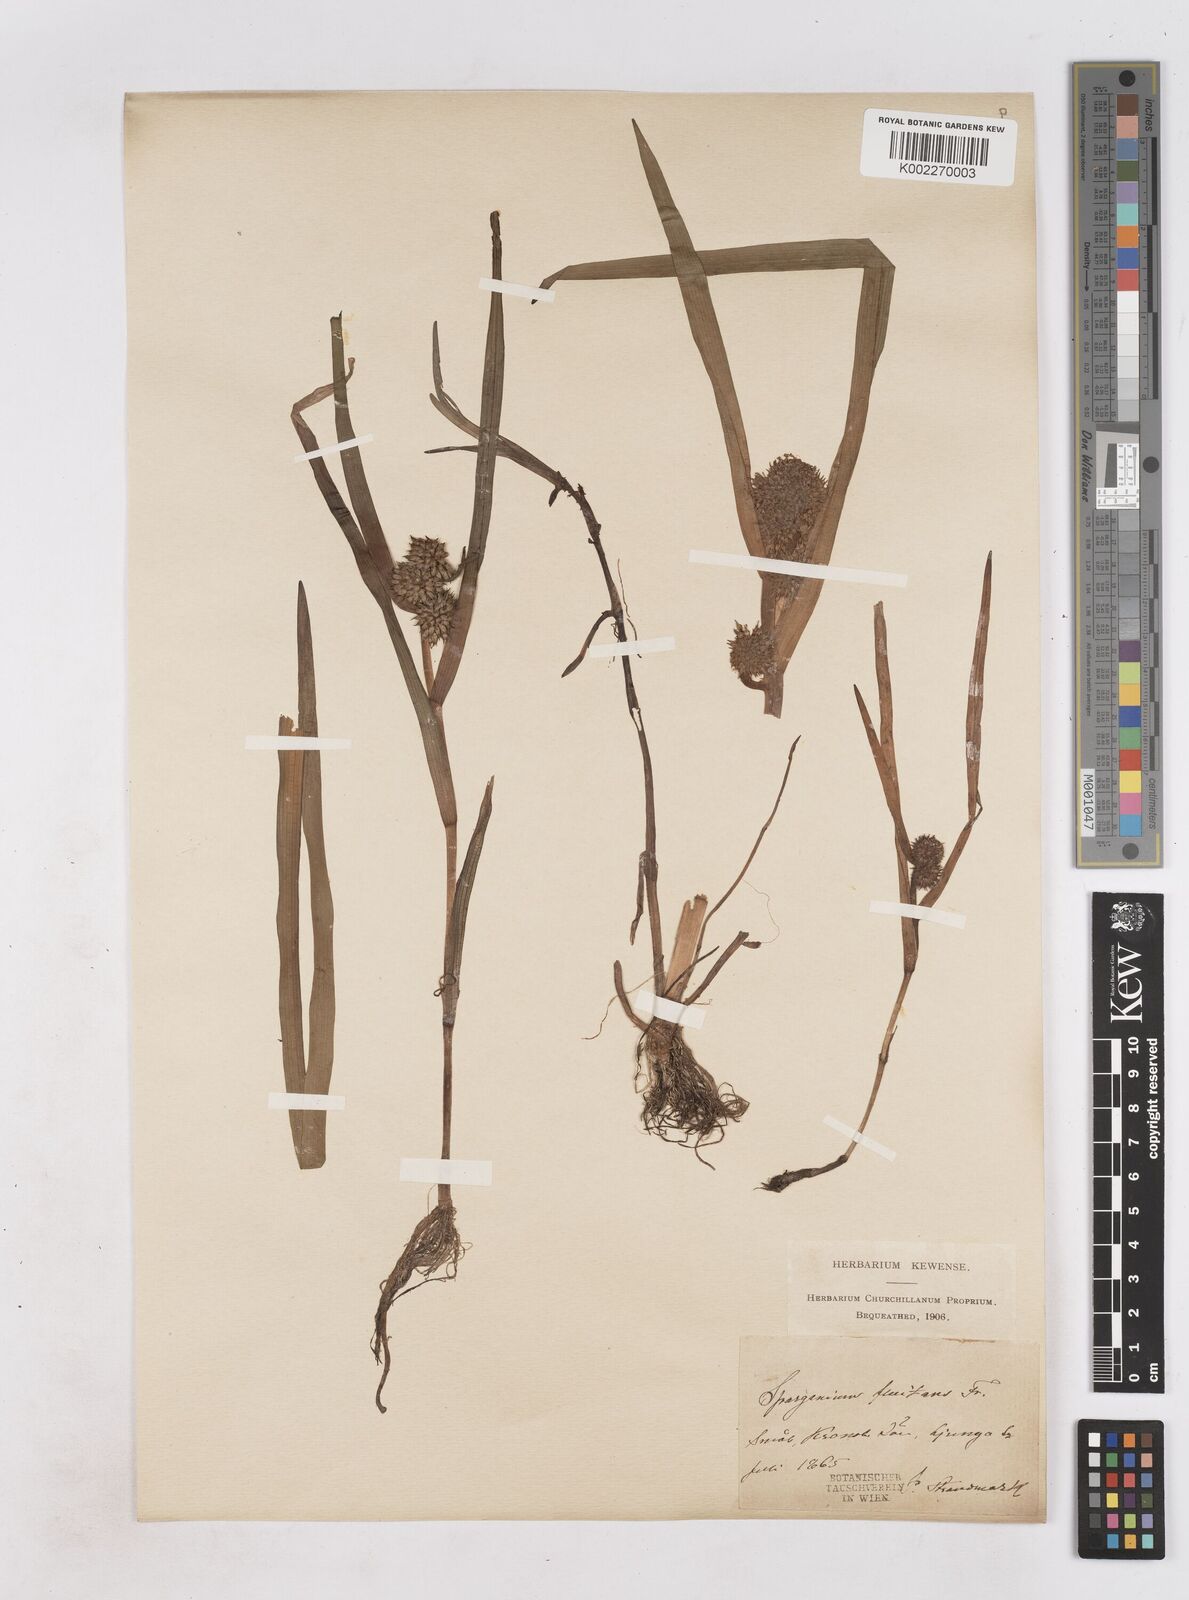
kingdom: Plantae
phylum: Tracheophyta
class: Liliopsida
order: Poales
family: Typhaceae
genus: Sparganium
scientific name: Sparganium angustifolium
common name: Floating bur-reed
